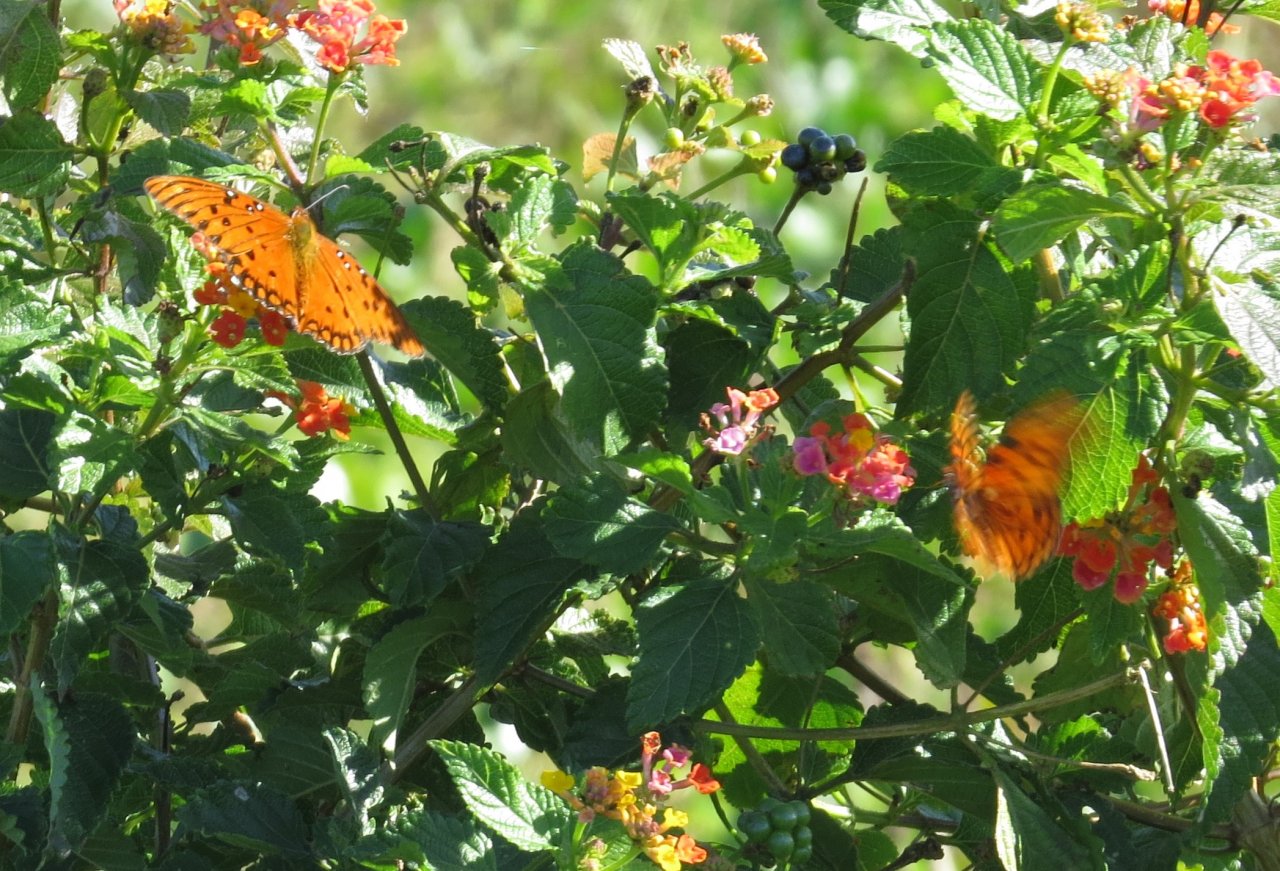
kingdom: Animalia
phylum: Arthropoda
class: Insecta
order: Lepidoptera
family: Nymphalidae
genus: Dione
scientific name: Dione vanillae
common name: Gulf Fritillary
